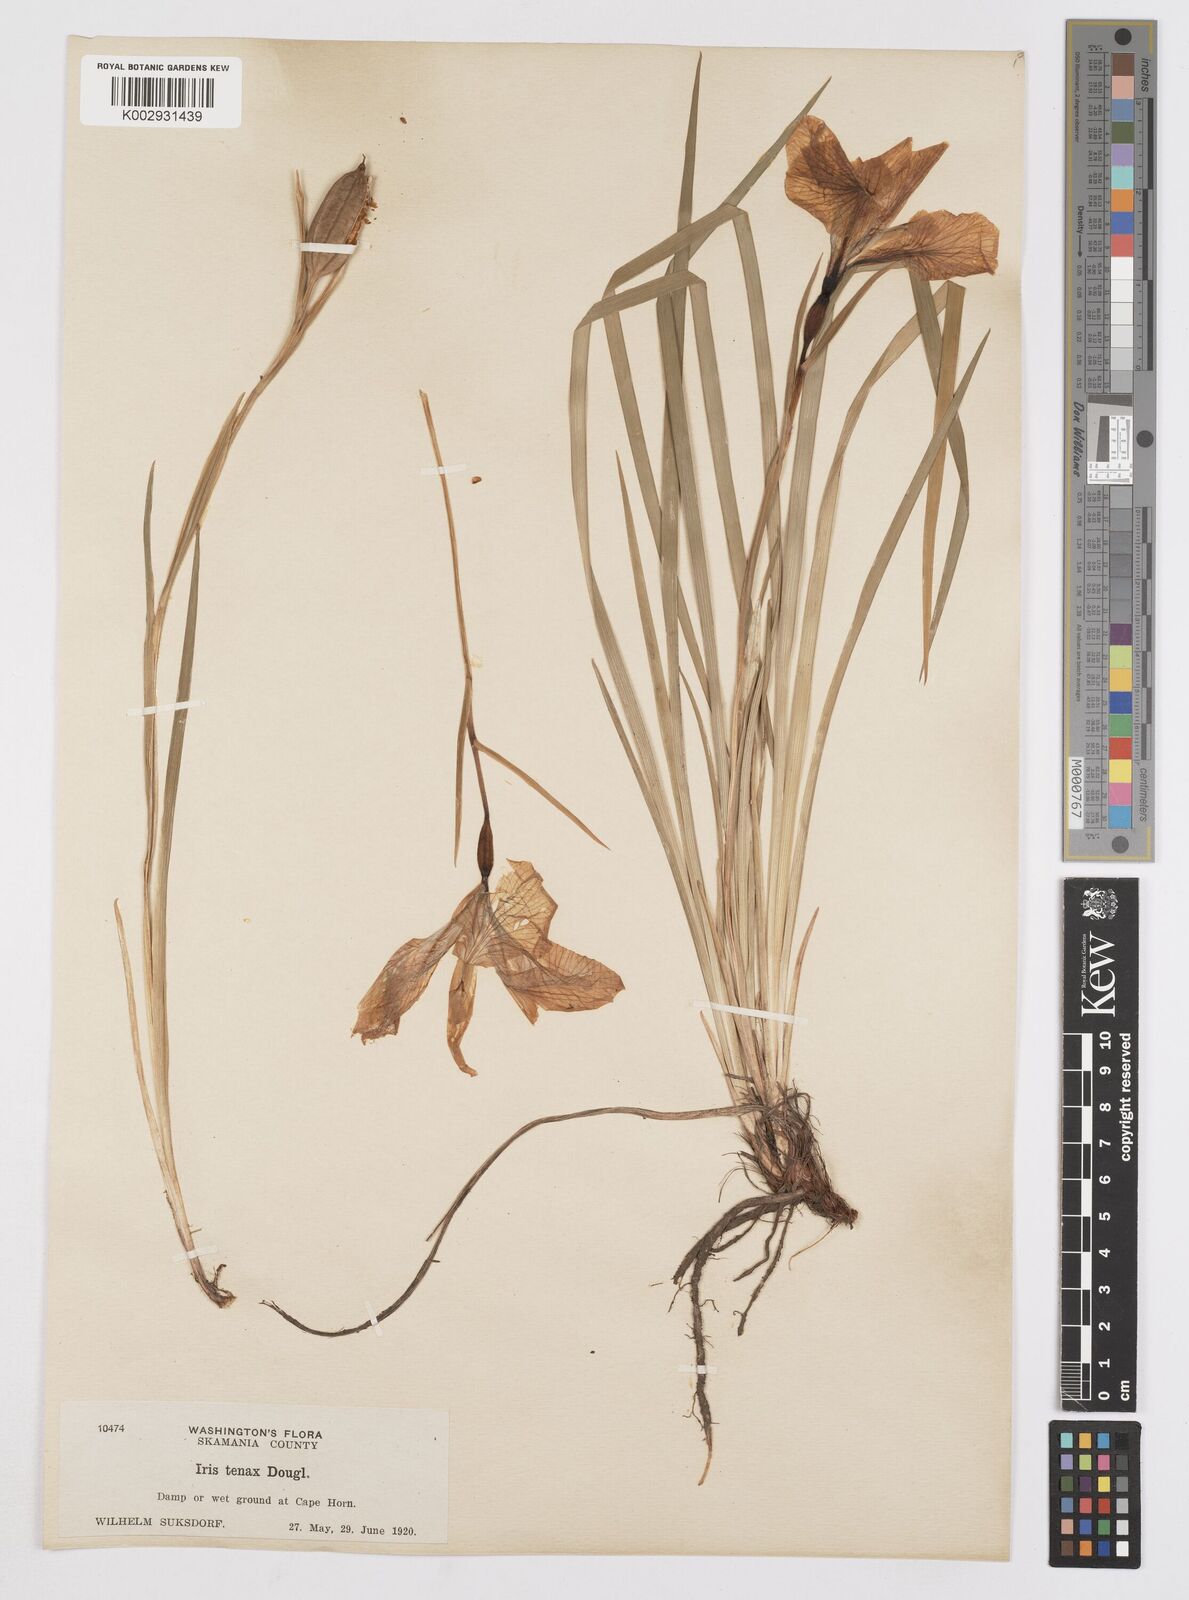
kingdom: Plantae
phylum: Tracheophyta
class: Liliopsida
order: Asparagales
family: Iridaceae
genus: Iris
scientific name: Iris tenax
